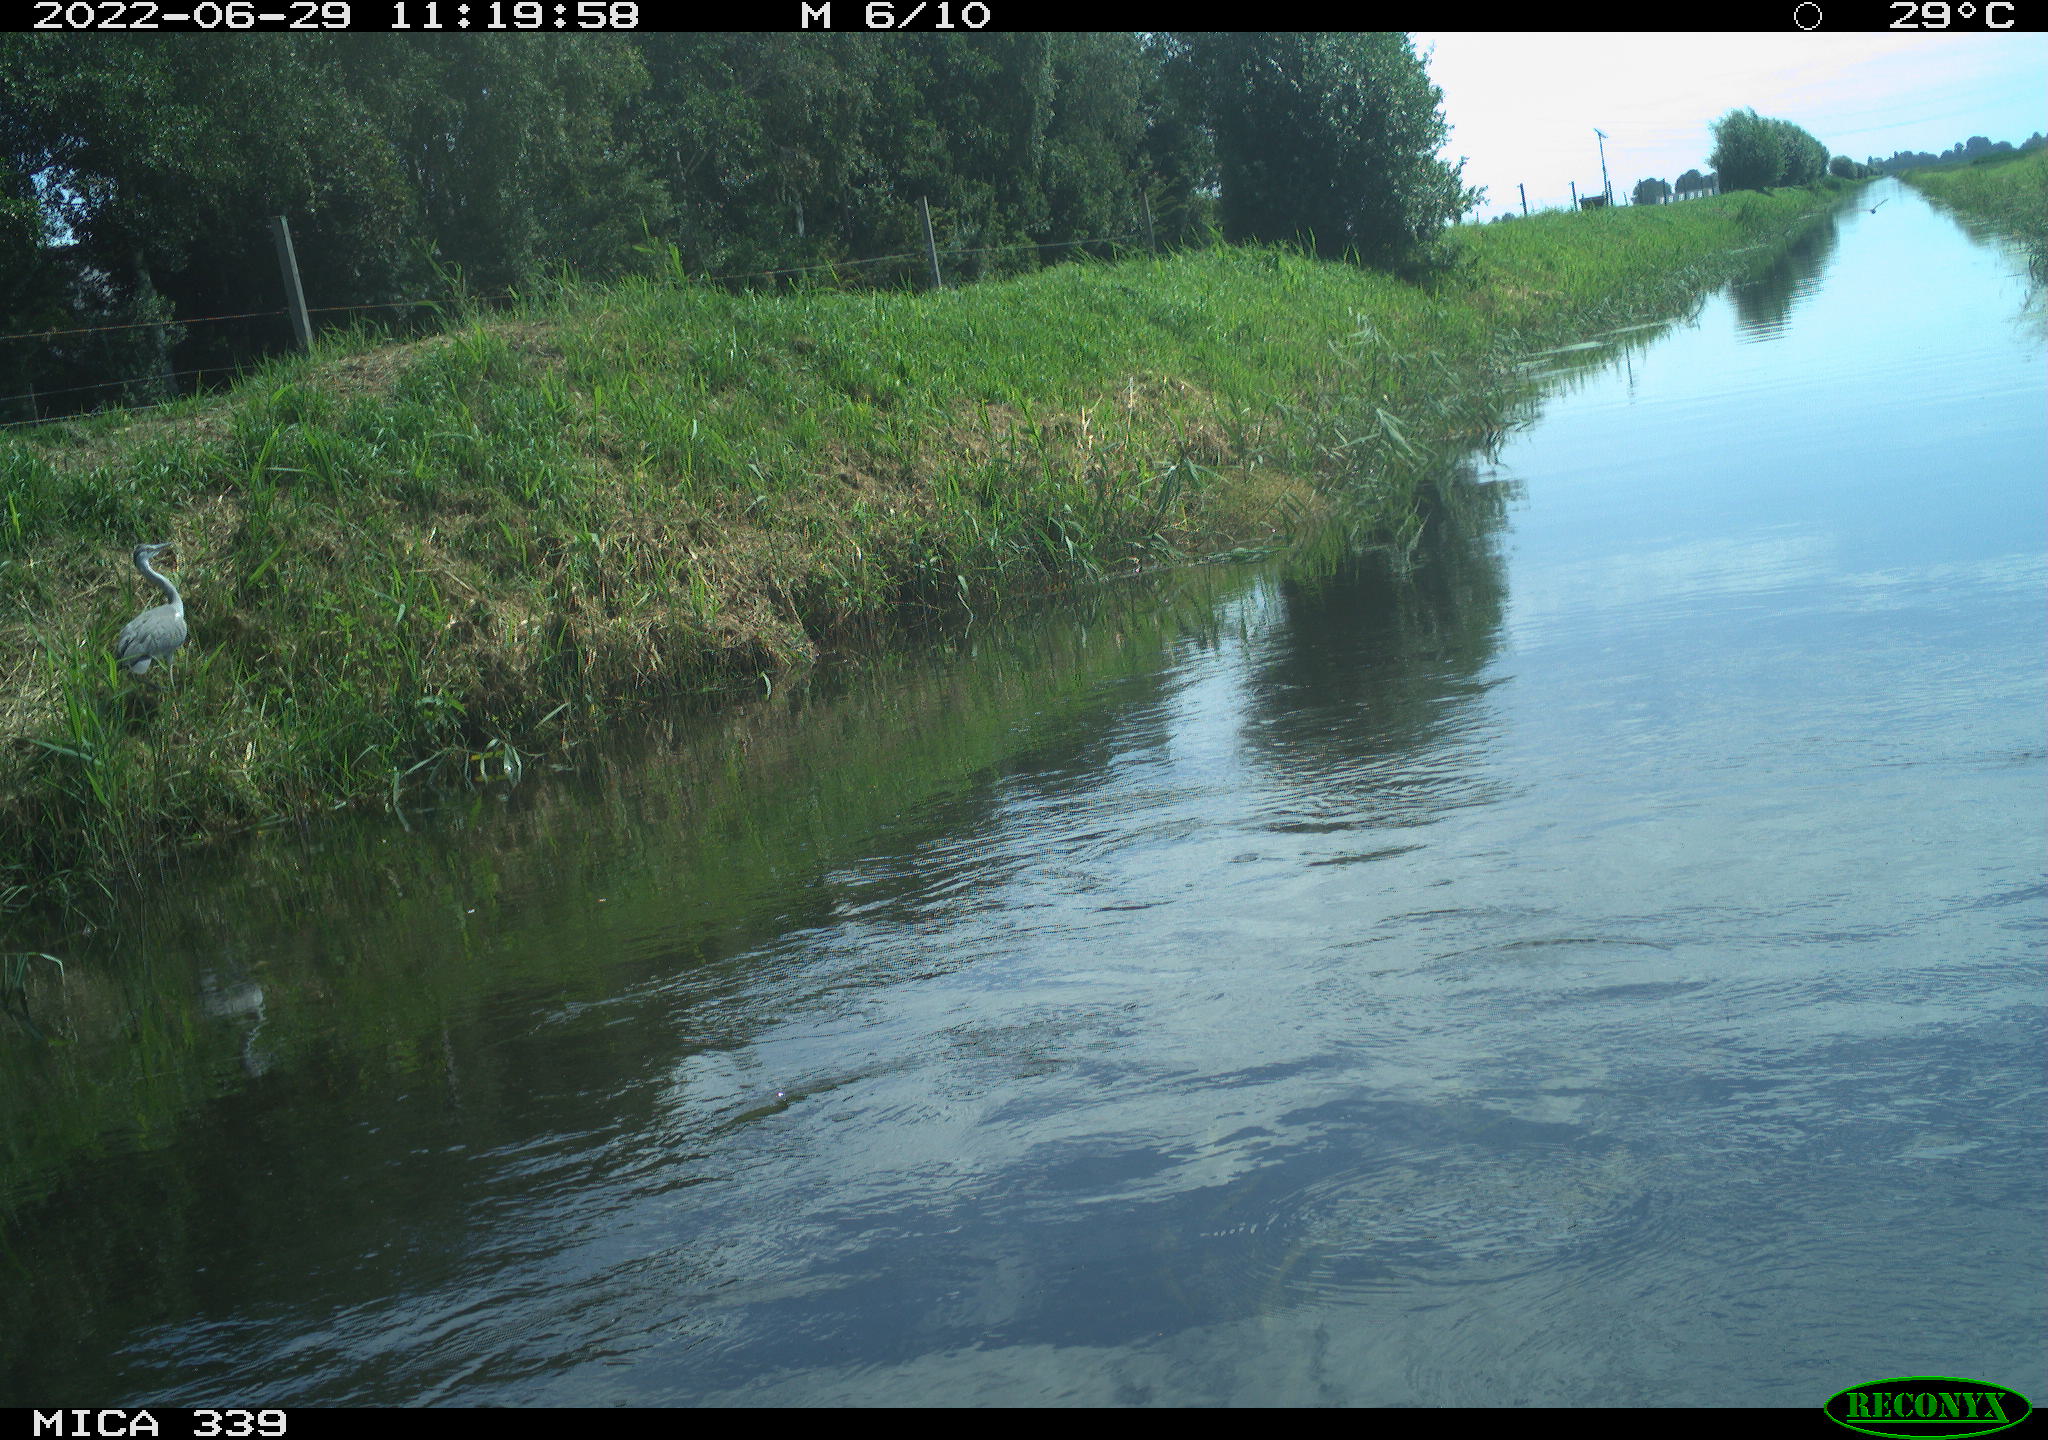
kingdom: Animalia
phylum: Chordata
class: Aves
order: Pelecaniformes
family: Ardeidae
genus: Ardea
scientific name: Ardea cinerea
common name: Grey heron
